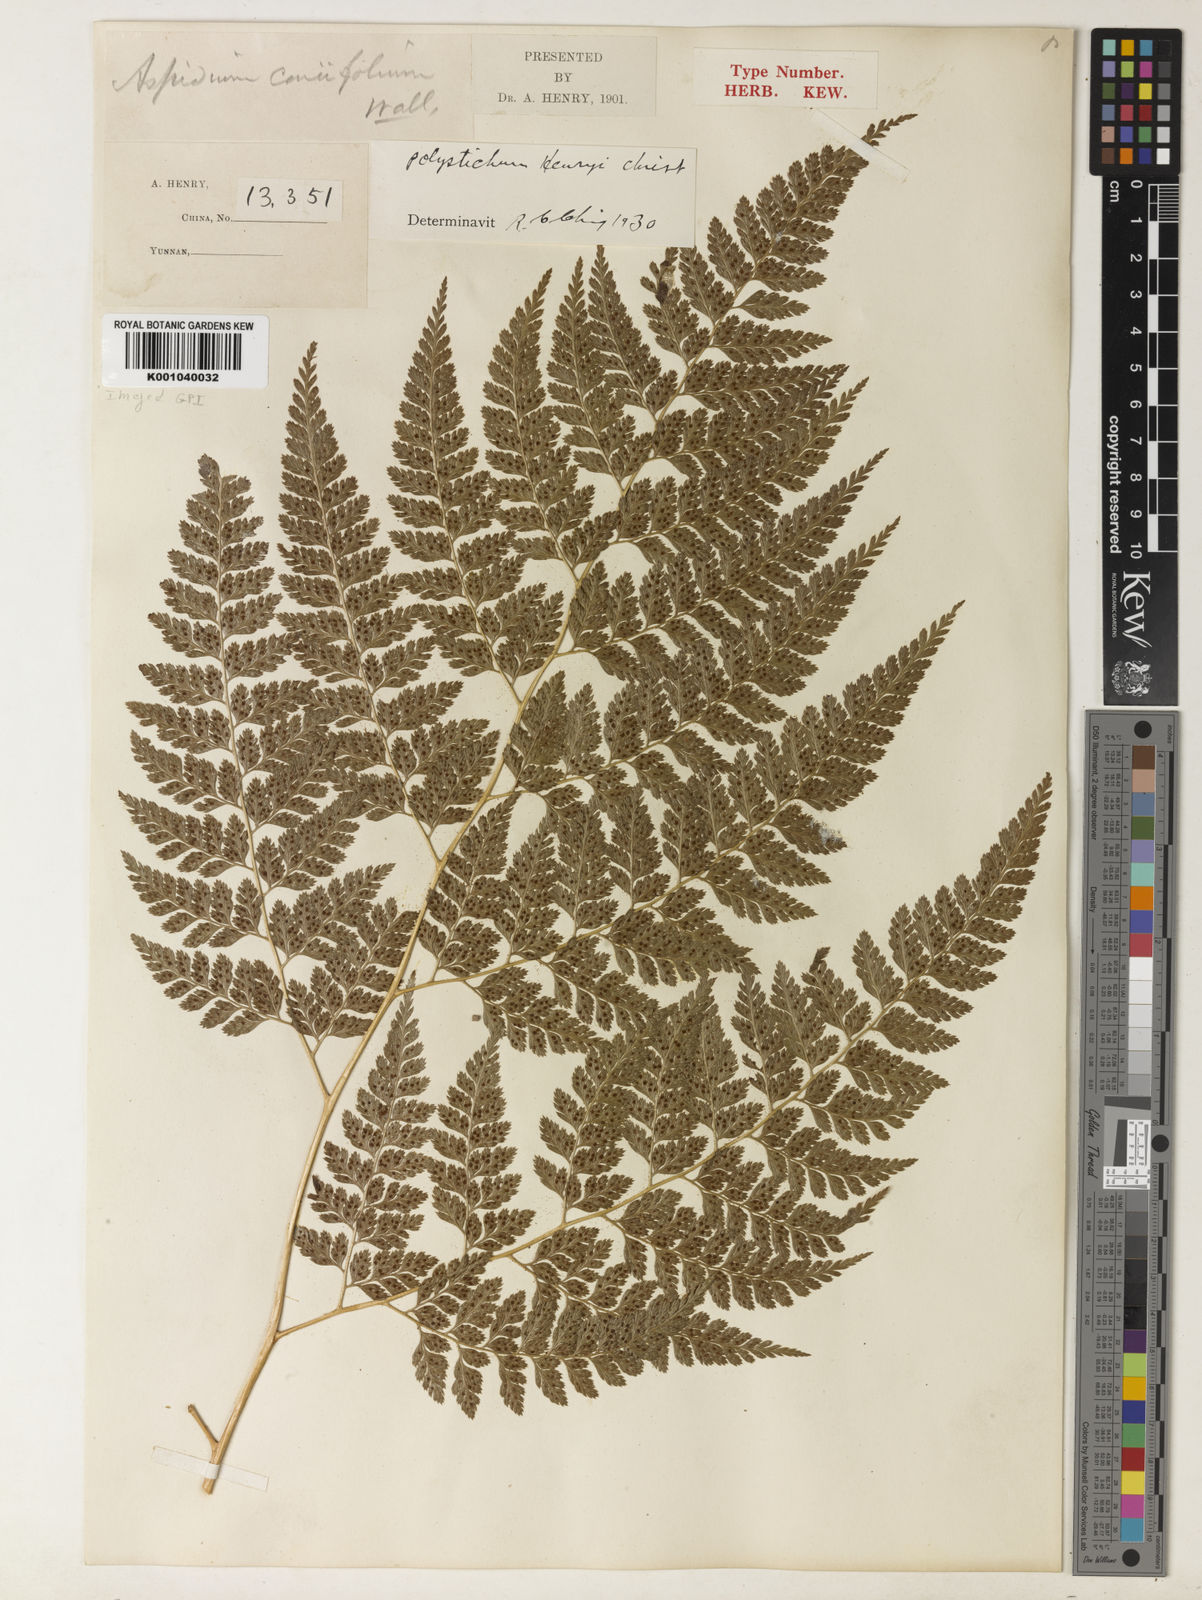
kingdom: Plantae
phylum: Tracheophyta
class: Polypodiopsida
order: Polypodiales
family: Dryopteridaceae
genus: Arachniodes
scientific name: Arachniodes henryi
